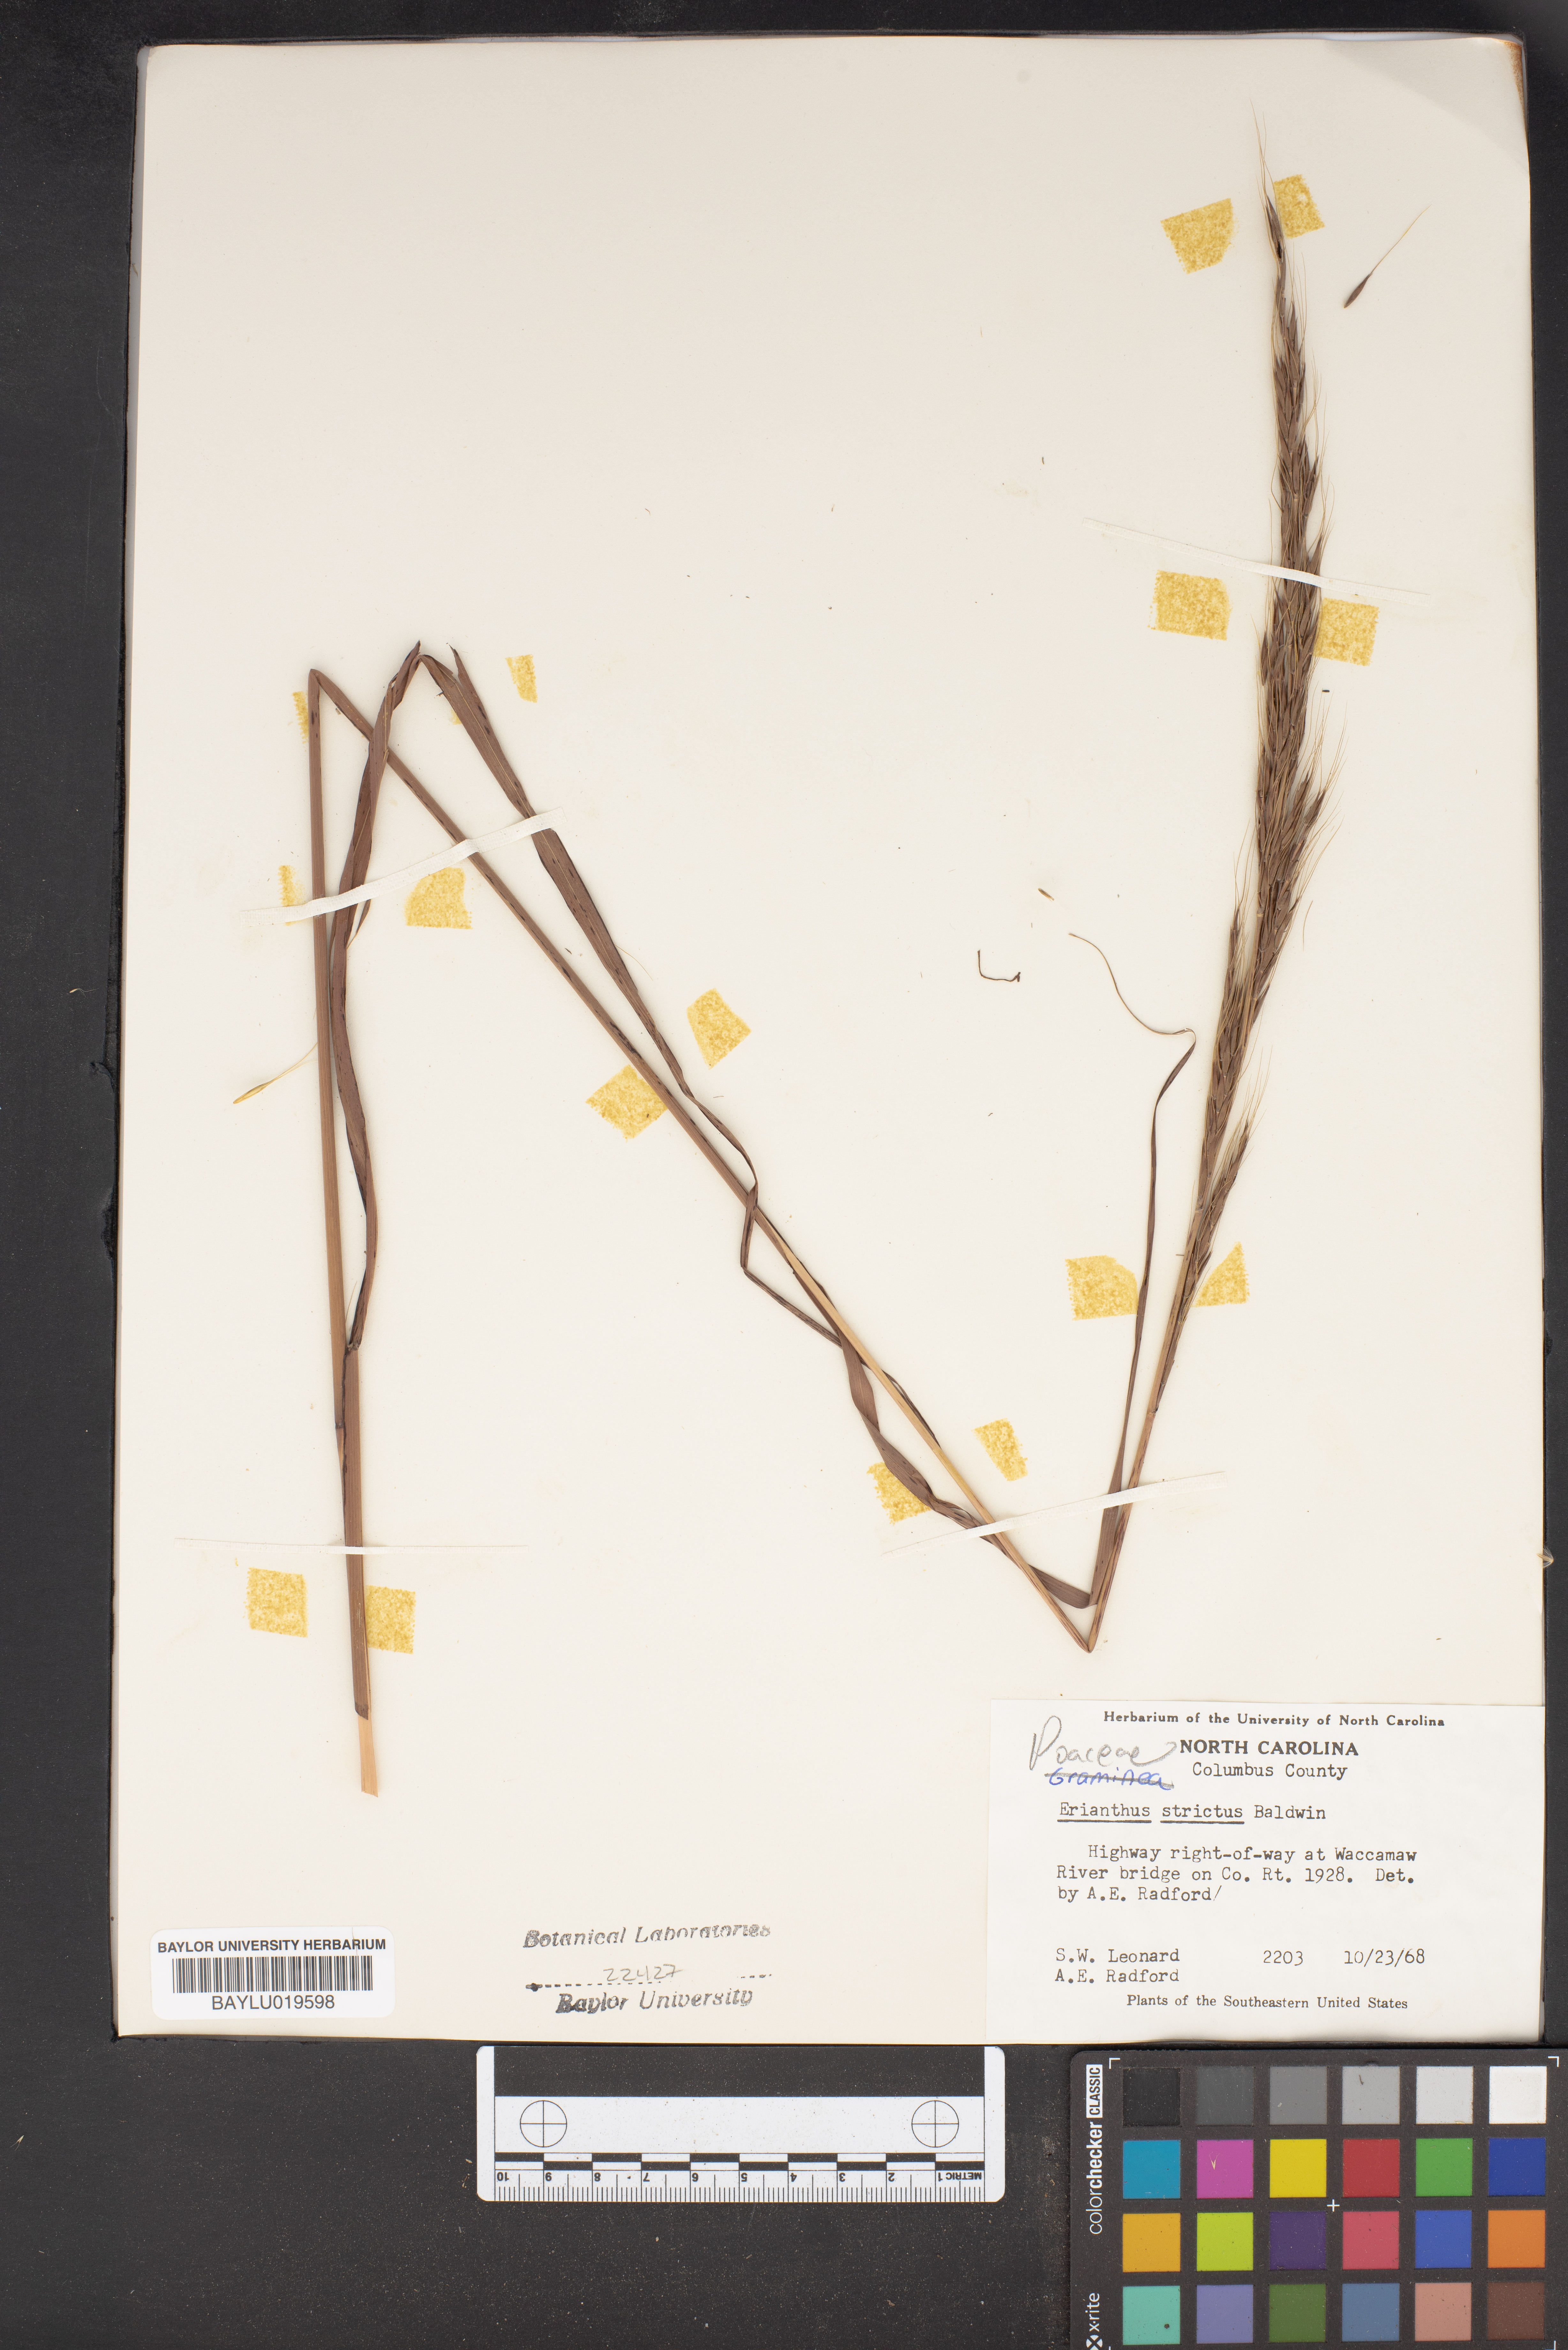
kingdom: Plantae
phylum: Tracheophyta
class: Liliopsida
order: Poales
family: Poaceae
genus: Erianthus
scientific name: Erianthus strictus
